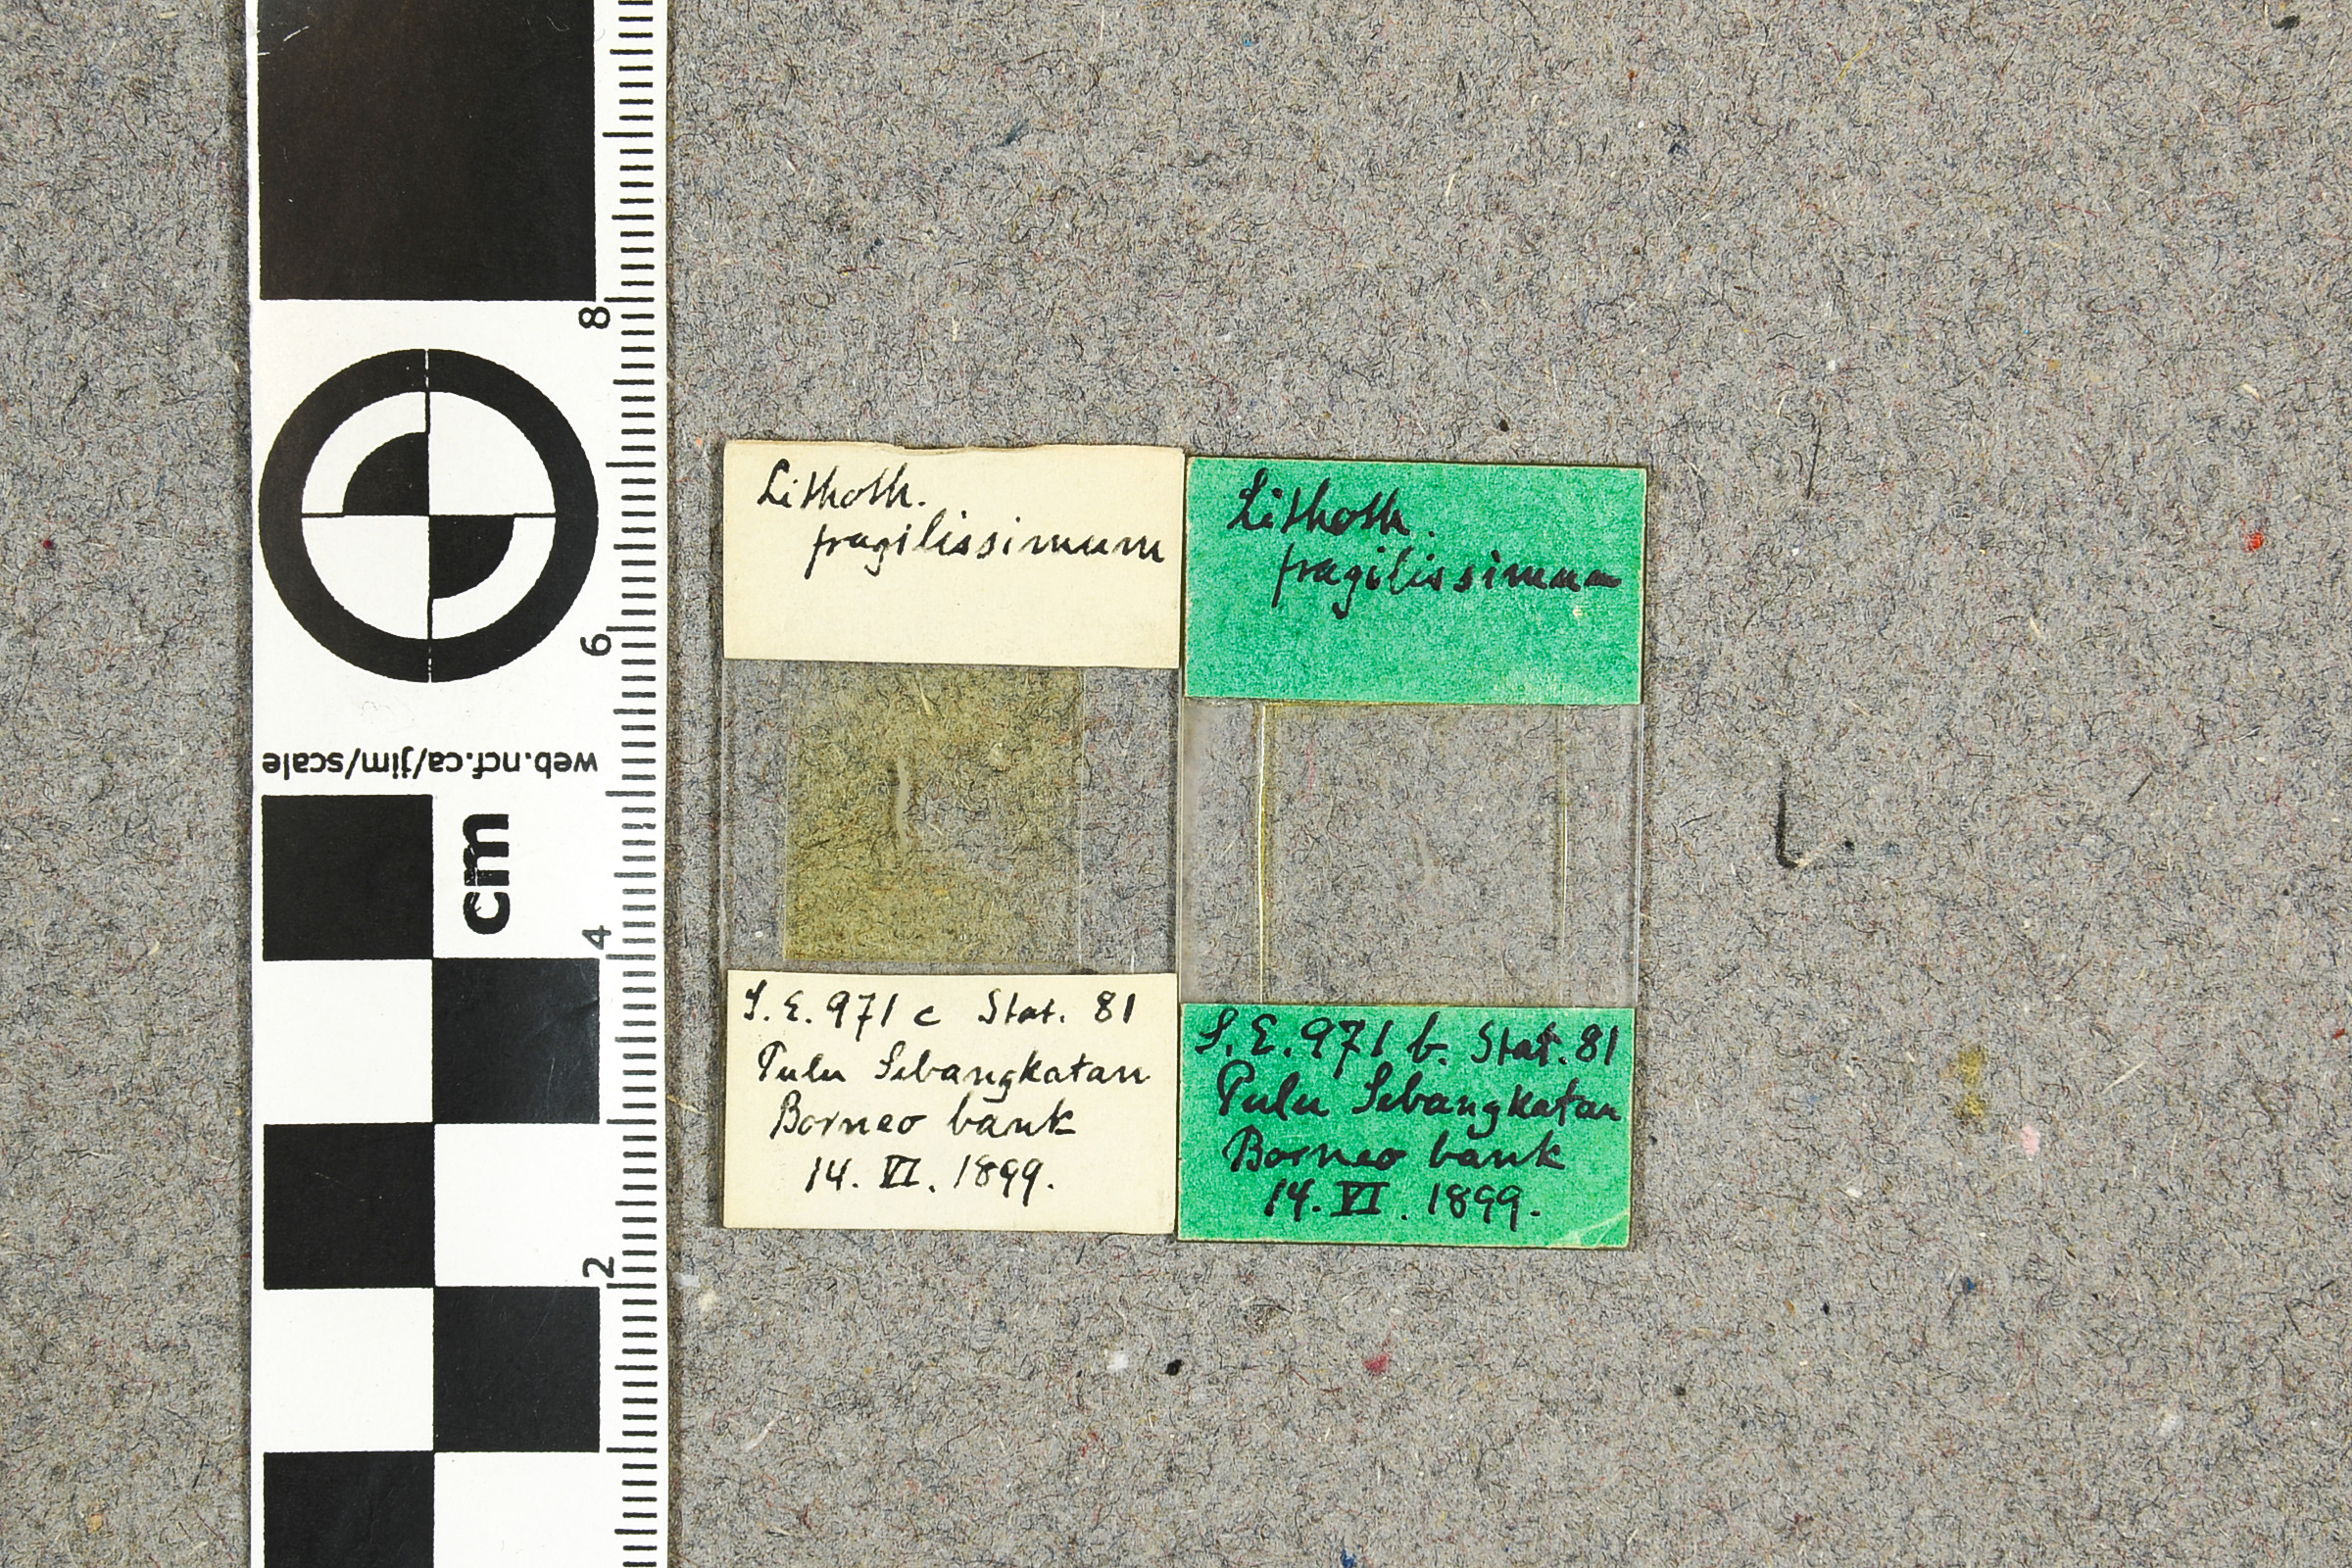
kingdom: Plantae
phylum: Rhodophyta
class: Florideophyceae
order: Corallinales
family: Mesophyllumaceae
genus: Mesophyllum
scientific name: Mesophyllum fragilissimum
